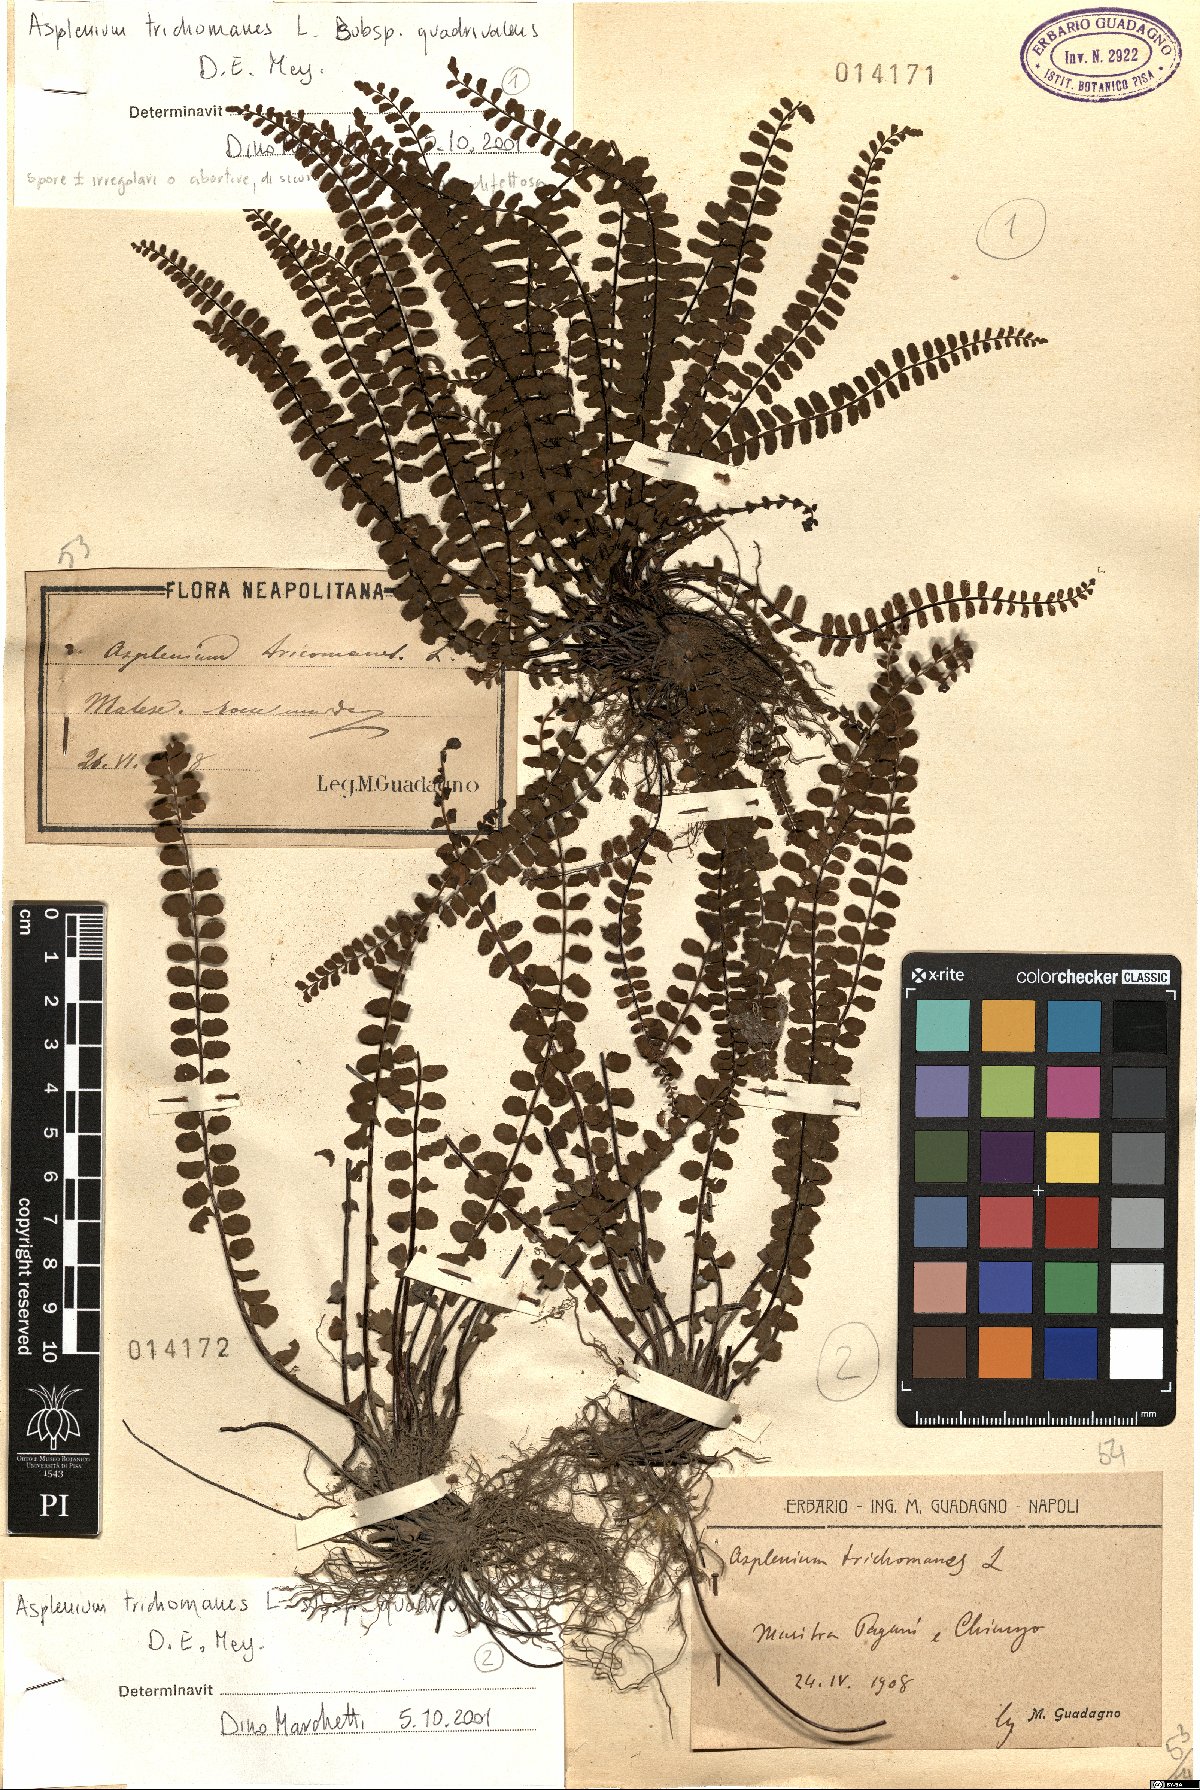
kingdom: Plantae
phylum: Tracheophyta
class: Polypodiopsida
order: Polypodiales
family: Aspleniaceae
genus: Asplenium
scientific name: Asplenium quadrivalens
